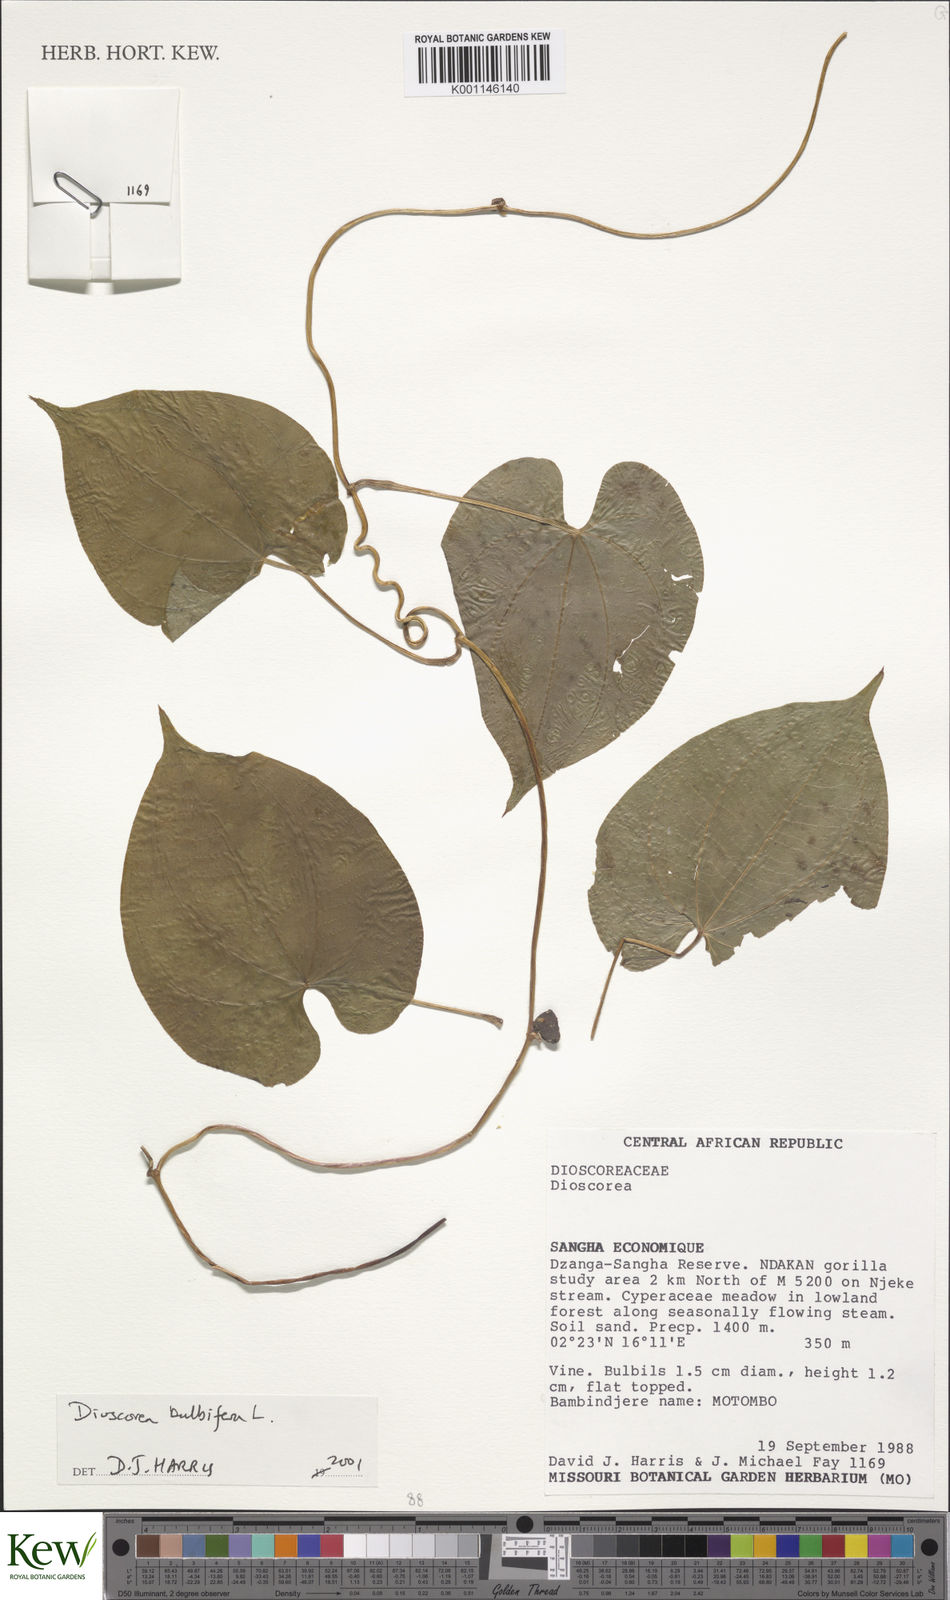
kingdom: Plantae
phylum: Tracheophyta
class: Liliopsida
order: Dioscoreales
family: Dioscoreaceae
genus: Dioscorea
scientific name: Dioscorea bulbifera
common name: Air yam
